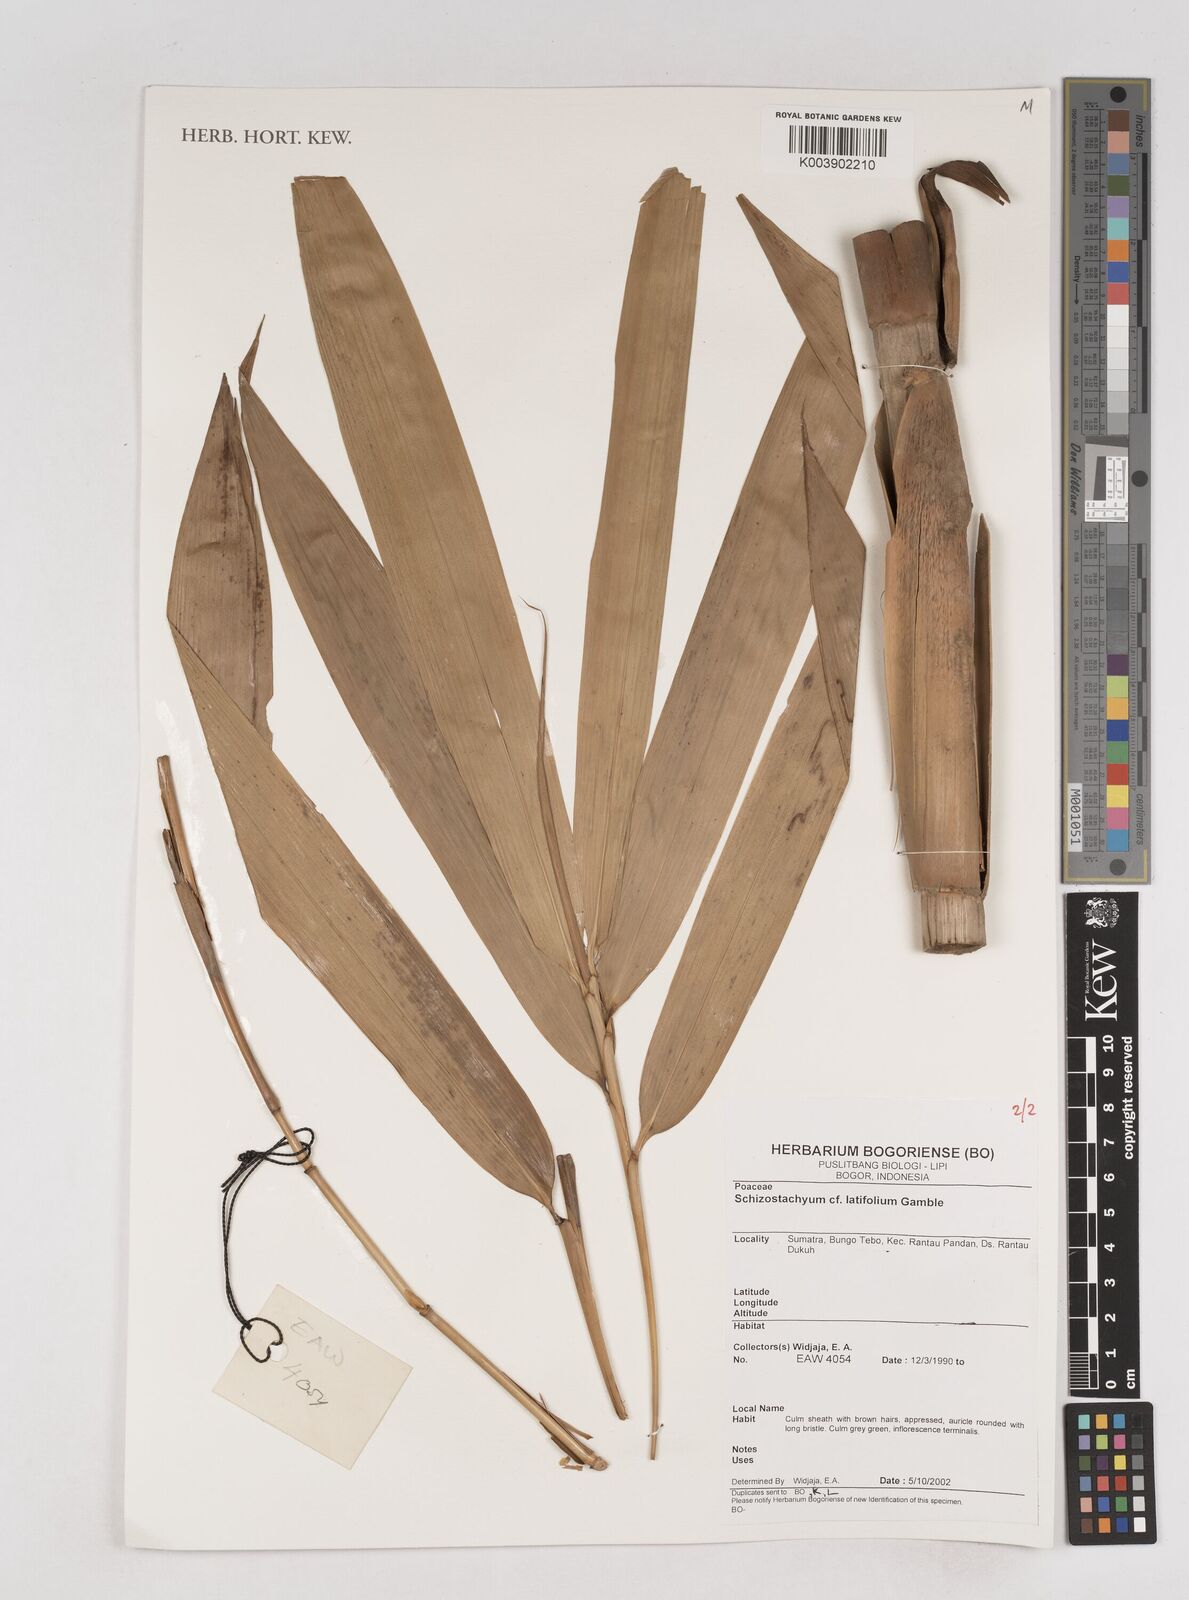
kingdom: Plantae
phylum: Tracheophyta
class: Liliopsida
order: Poales
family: Poaceae
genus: Schizostachyum
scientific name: Schizostachyum latifolium
